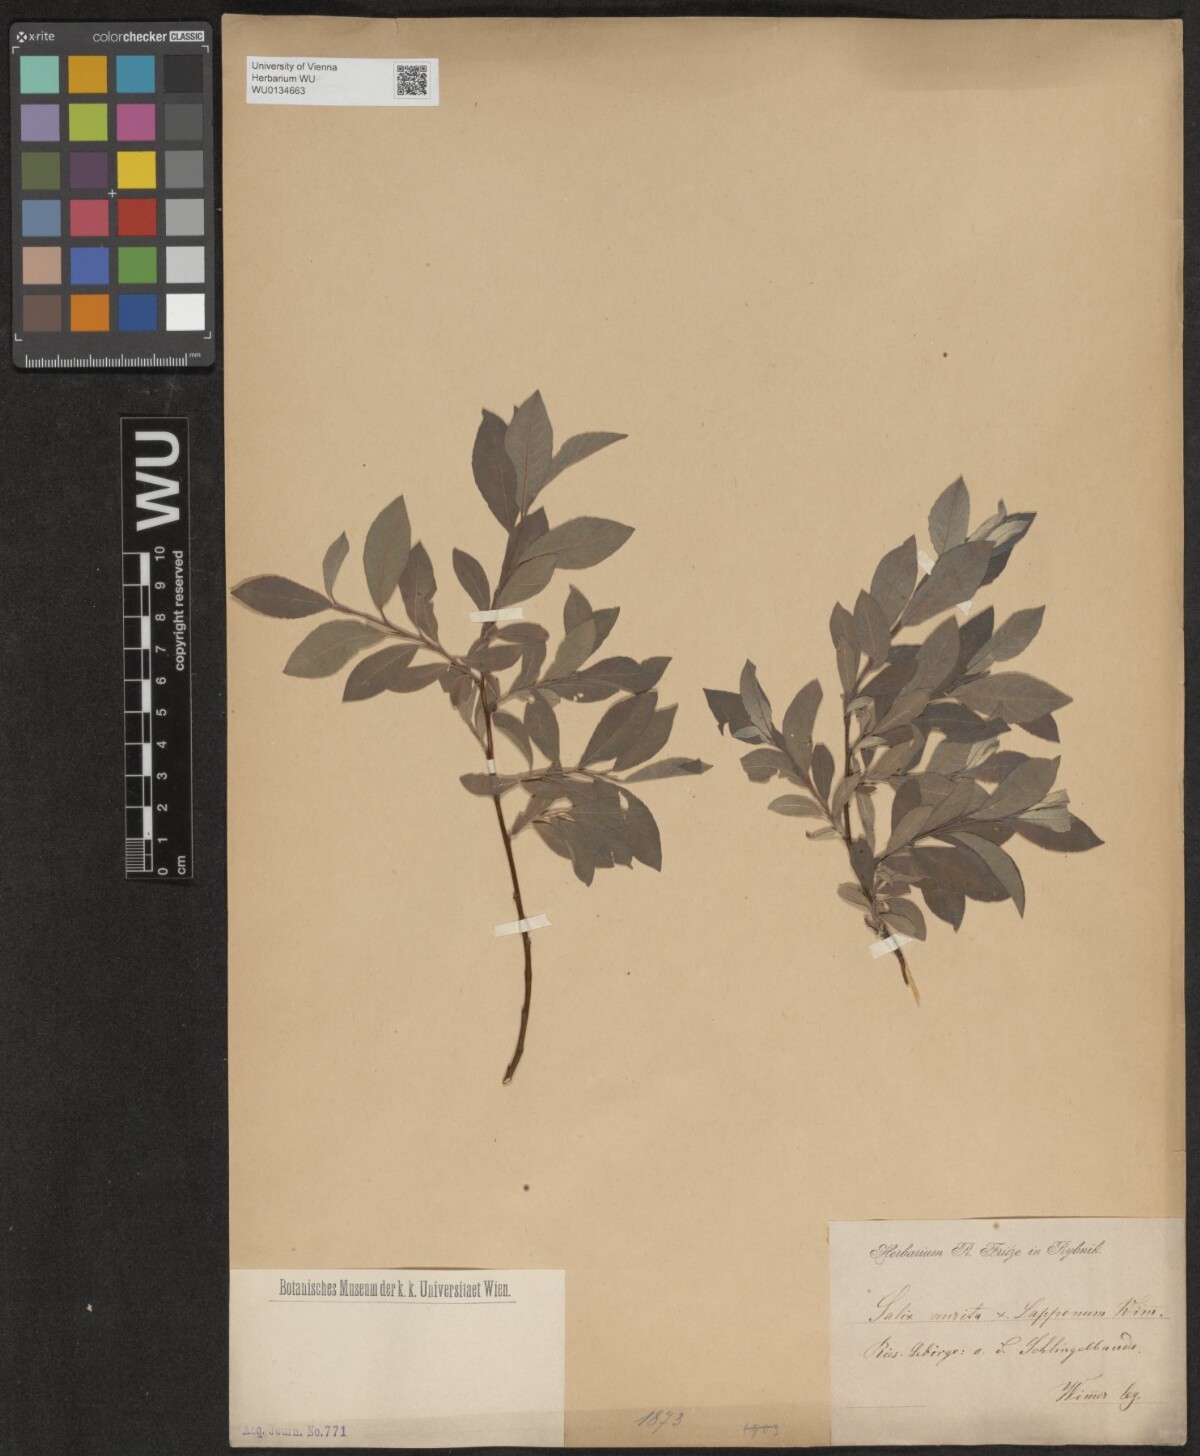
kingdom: Plantae
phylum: Tracheophyta
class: Magnoliopsida
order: Malpighiales
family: Salicaceae
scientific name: Salicaceae
